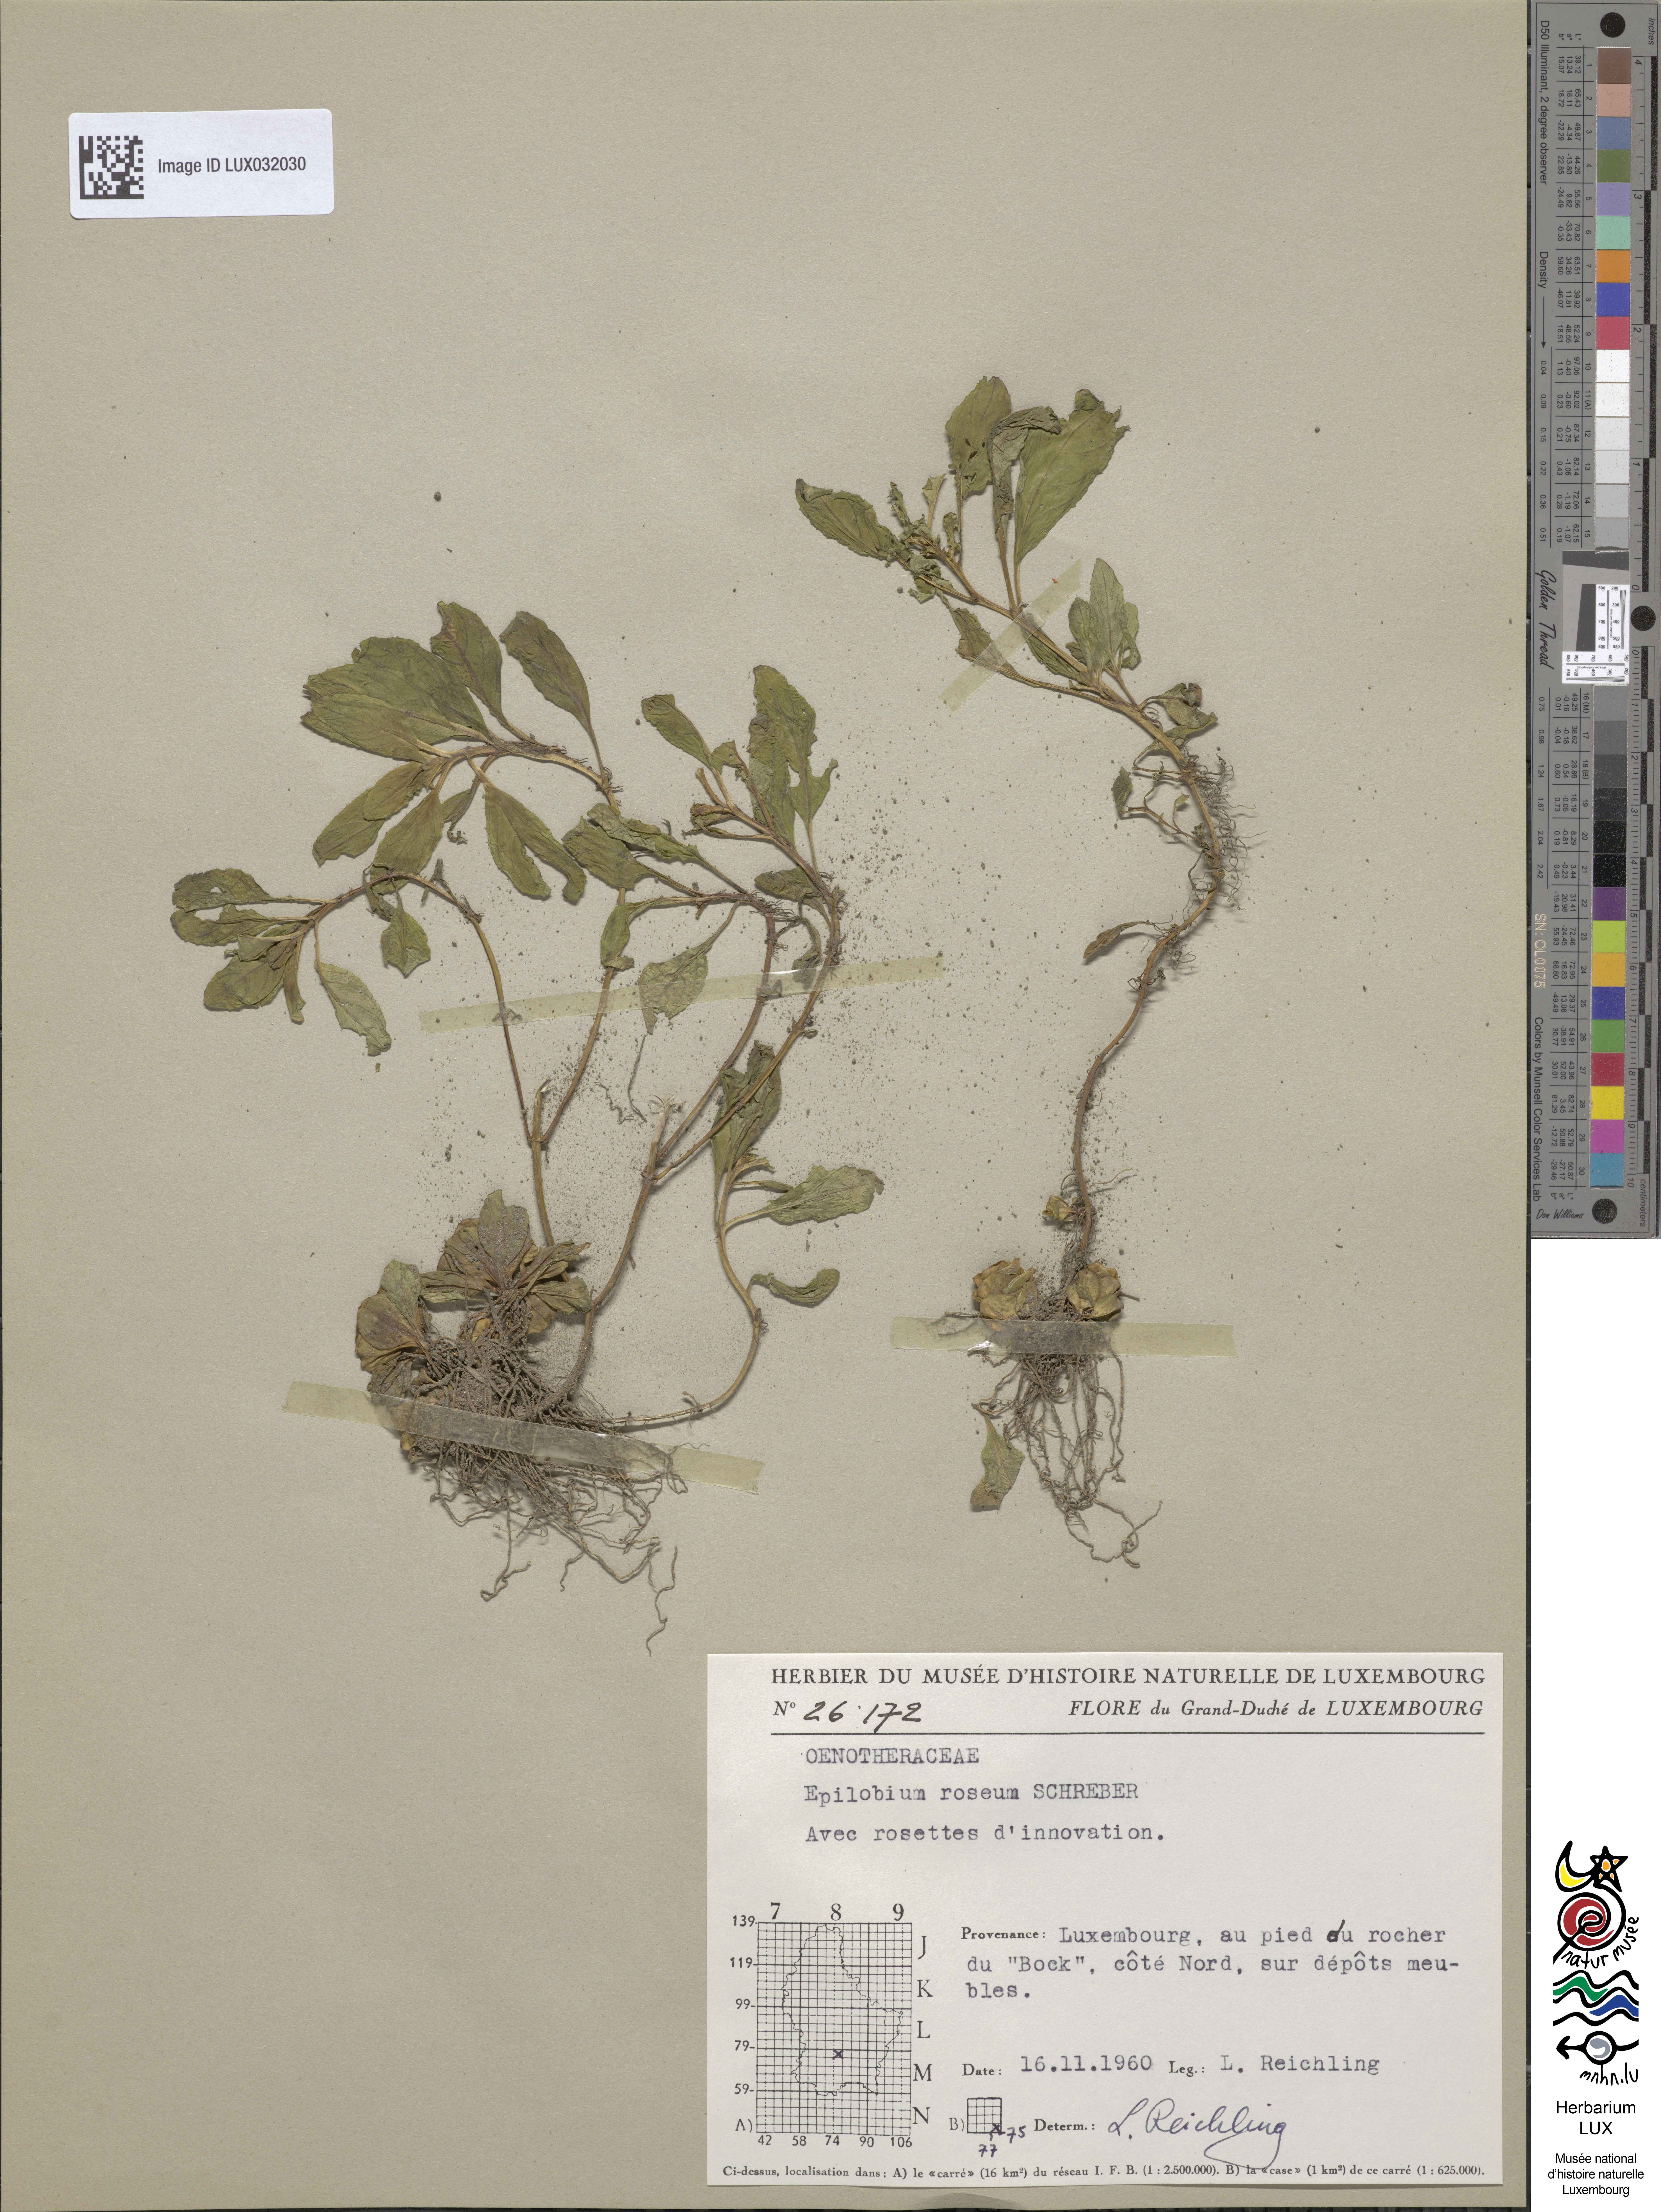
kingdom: Plantae
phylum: Tracheophyta
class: Magnoliopsida
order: Myrtales
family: Onagraceae
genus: Epilobium
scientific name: Epilobium roseum
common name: Pale willowherb
